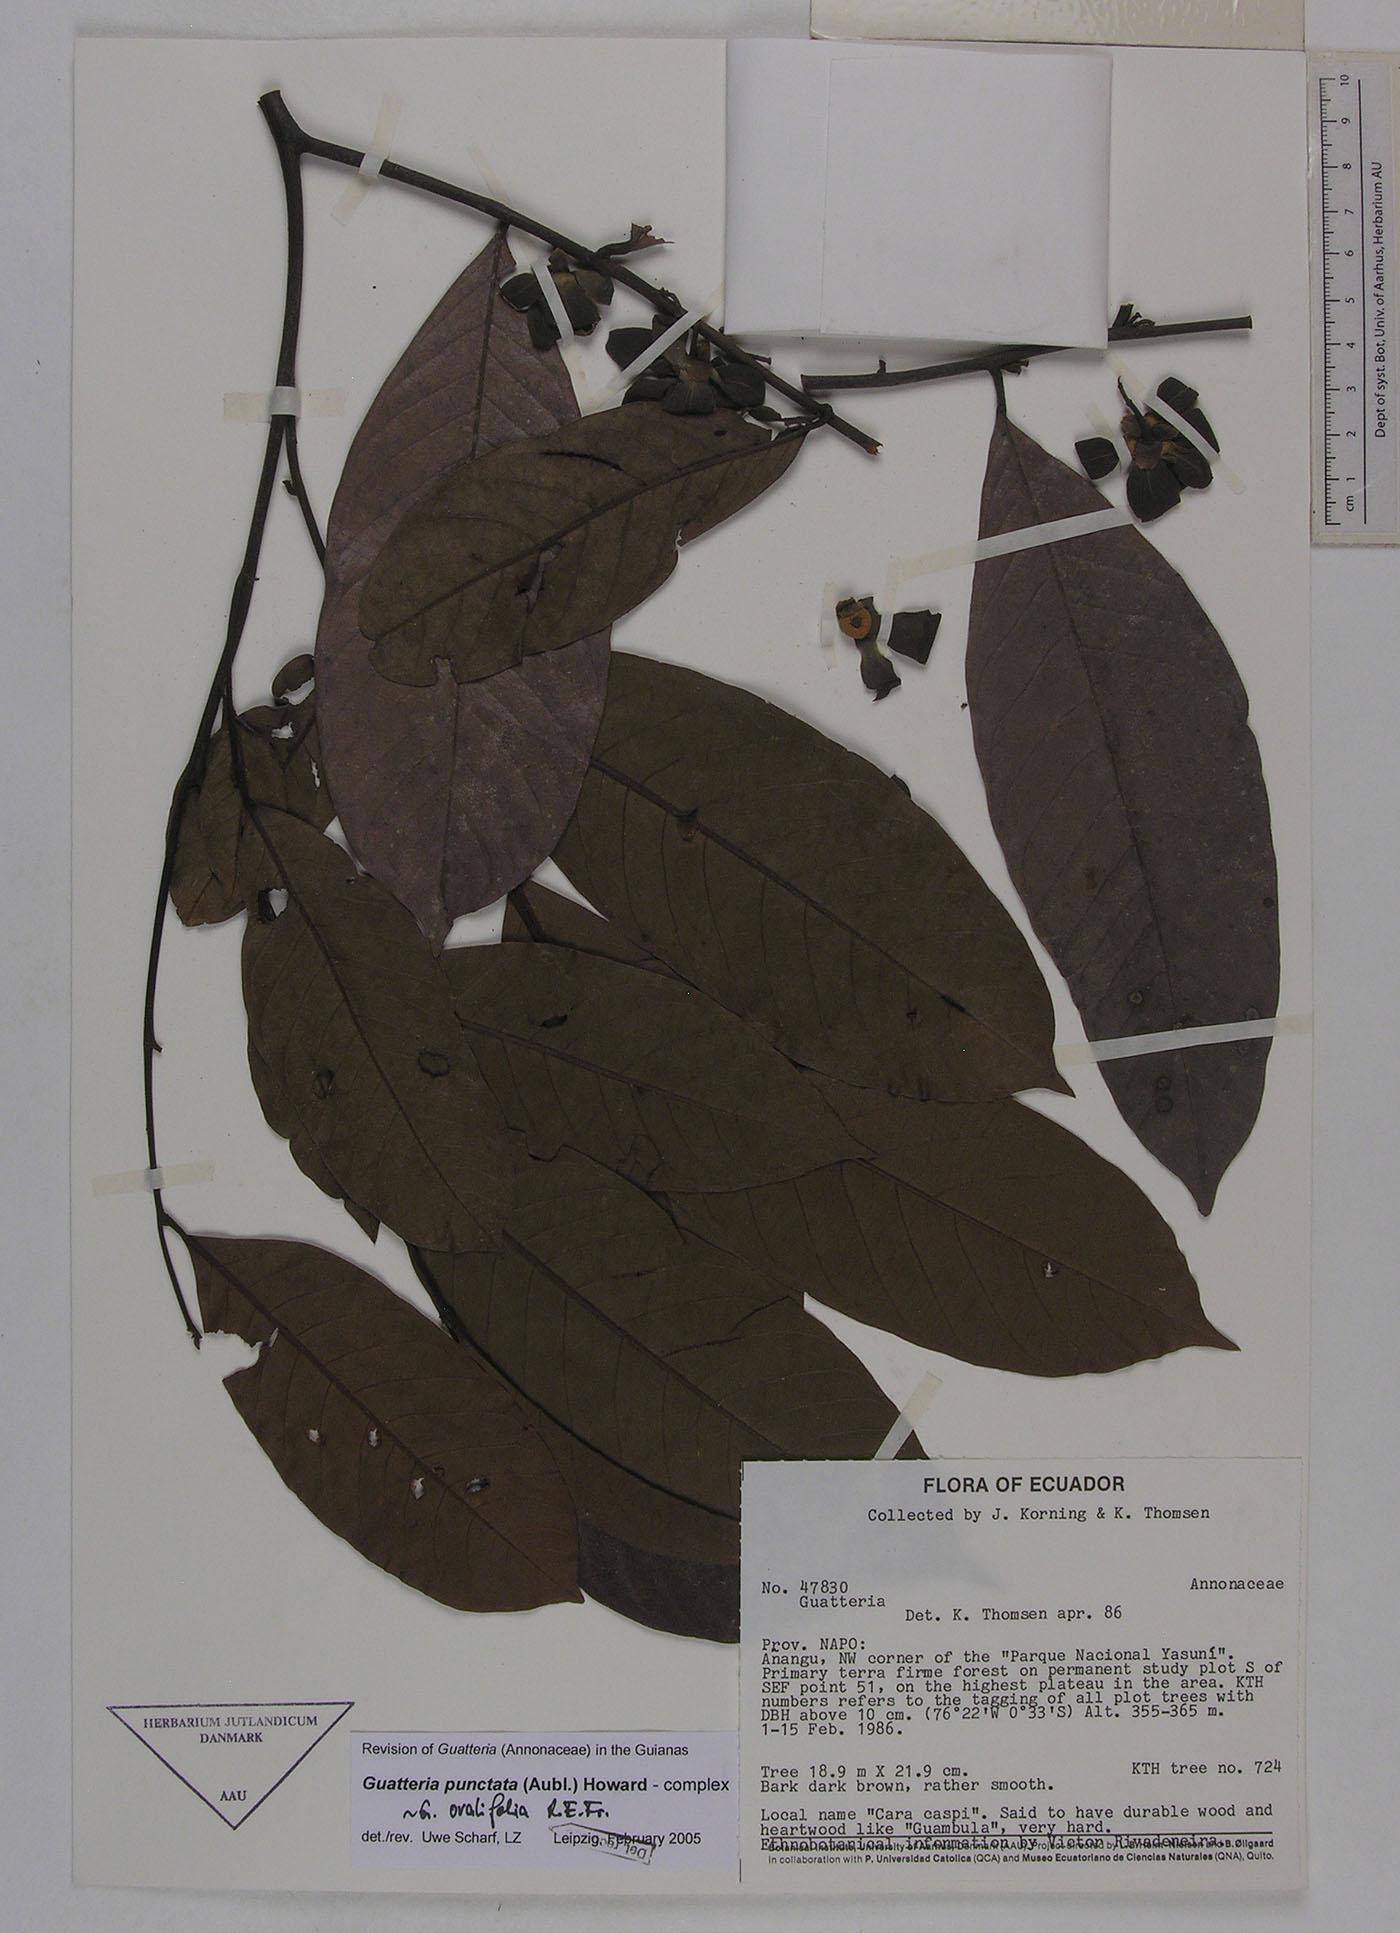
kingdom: Plantae
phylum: Tracheophyta
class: Magnoliopsida
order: Magnoliales
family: Annonaceae
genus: Guatteria
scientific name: Guatteria punctata
